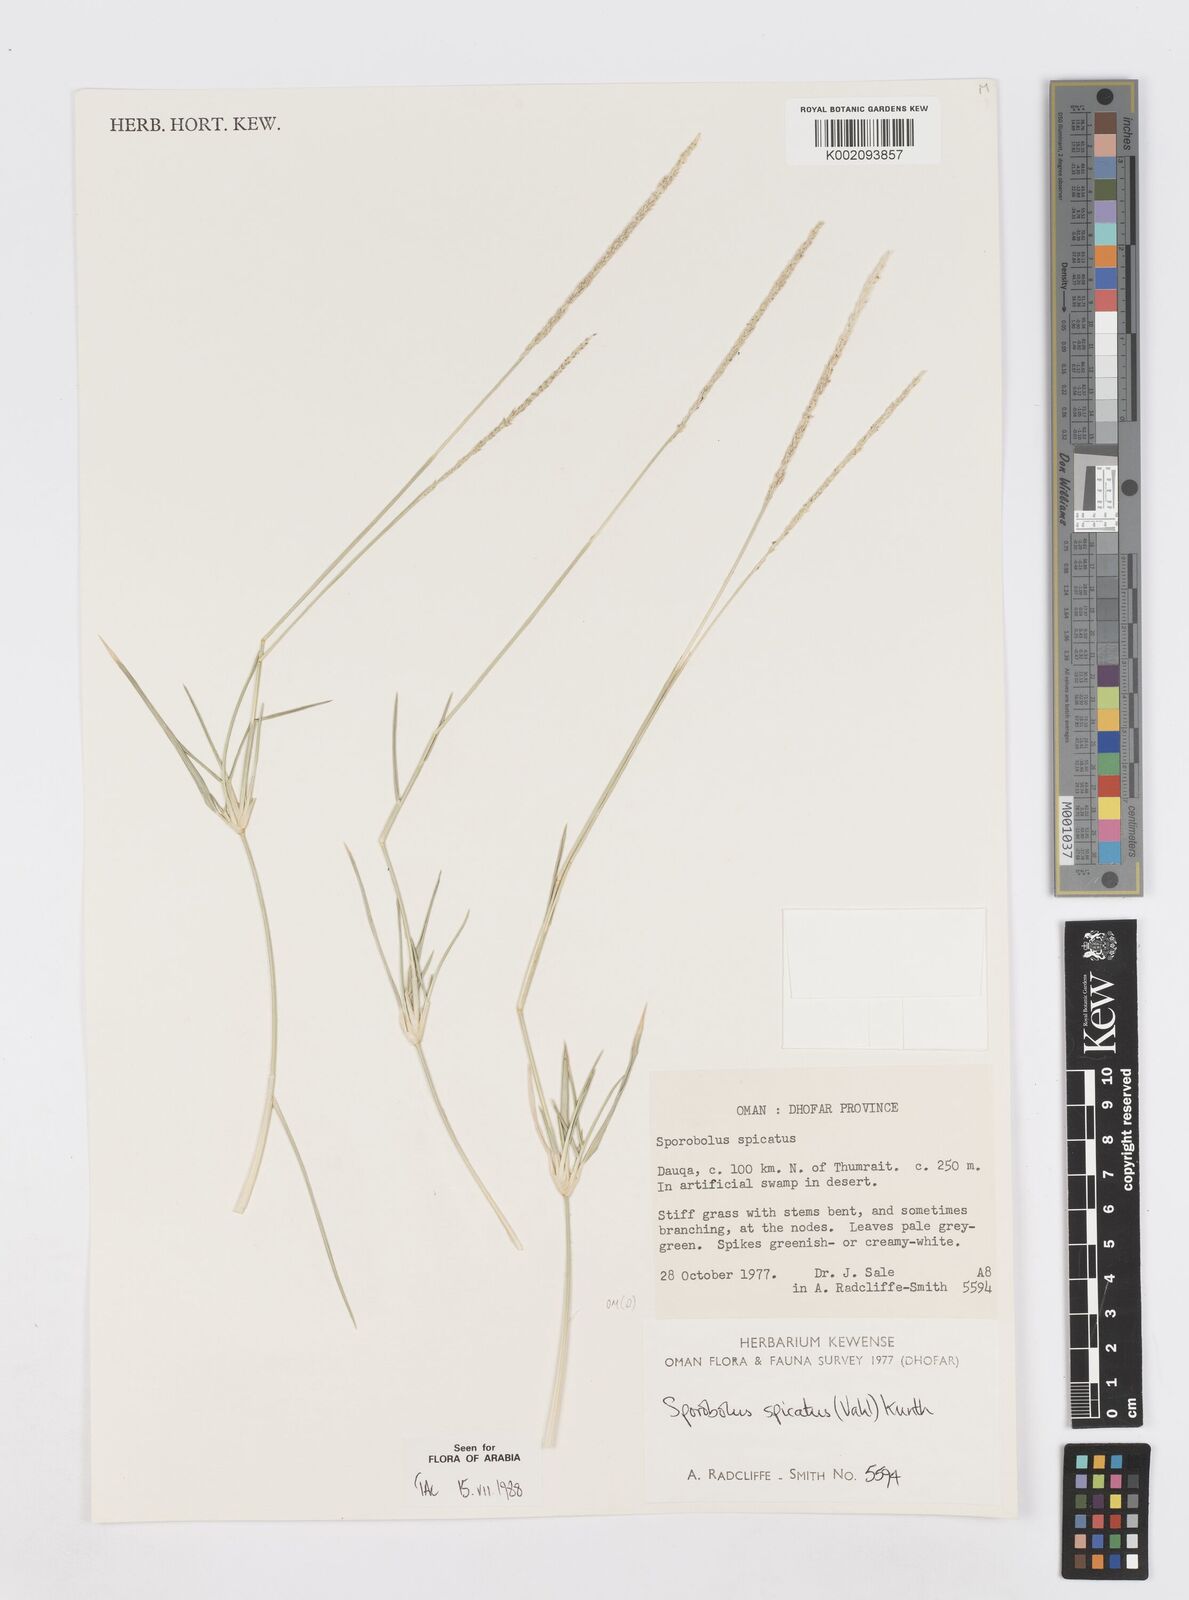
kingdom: Plantae
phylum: Tracheophyta
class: Liliopsida
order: Poales
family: Poaceae
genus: Sporobolus
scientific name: Sporobolus spicatus
